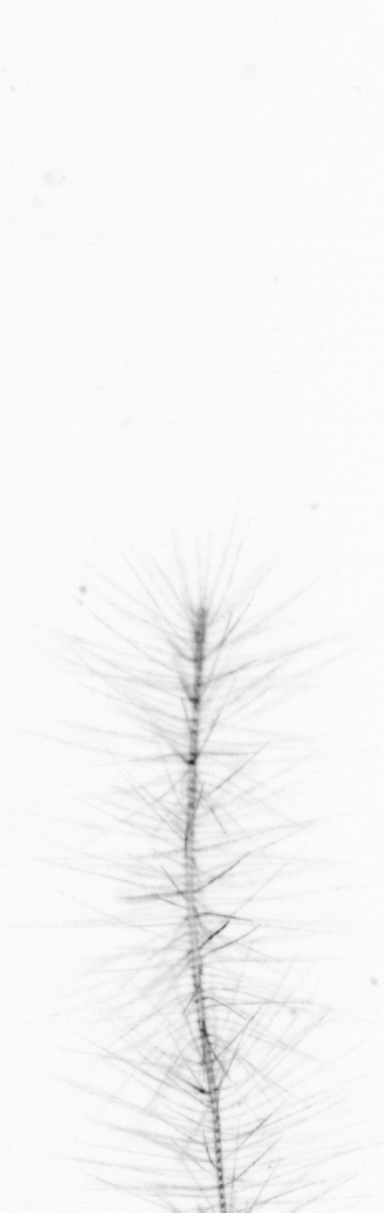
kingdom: Chromista
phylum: Ochrophyta
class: Bacillariophyceae
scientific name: Bacillariophyceae
